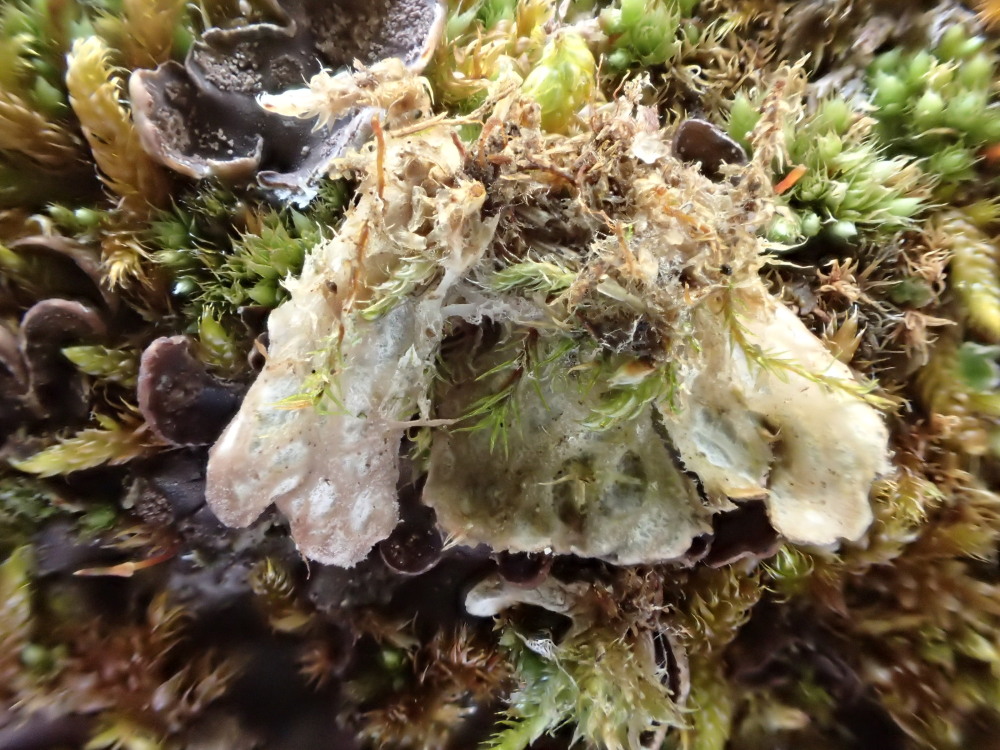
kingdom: Fungi
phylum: Ascomycota
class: Lecanoromycetes
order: Peltigerales
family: Peltigeraceae
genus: Peltigera
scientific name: Peltigera didactyla
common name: liden skjoldlav
